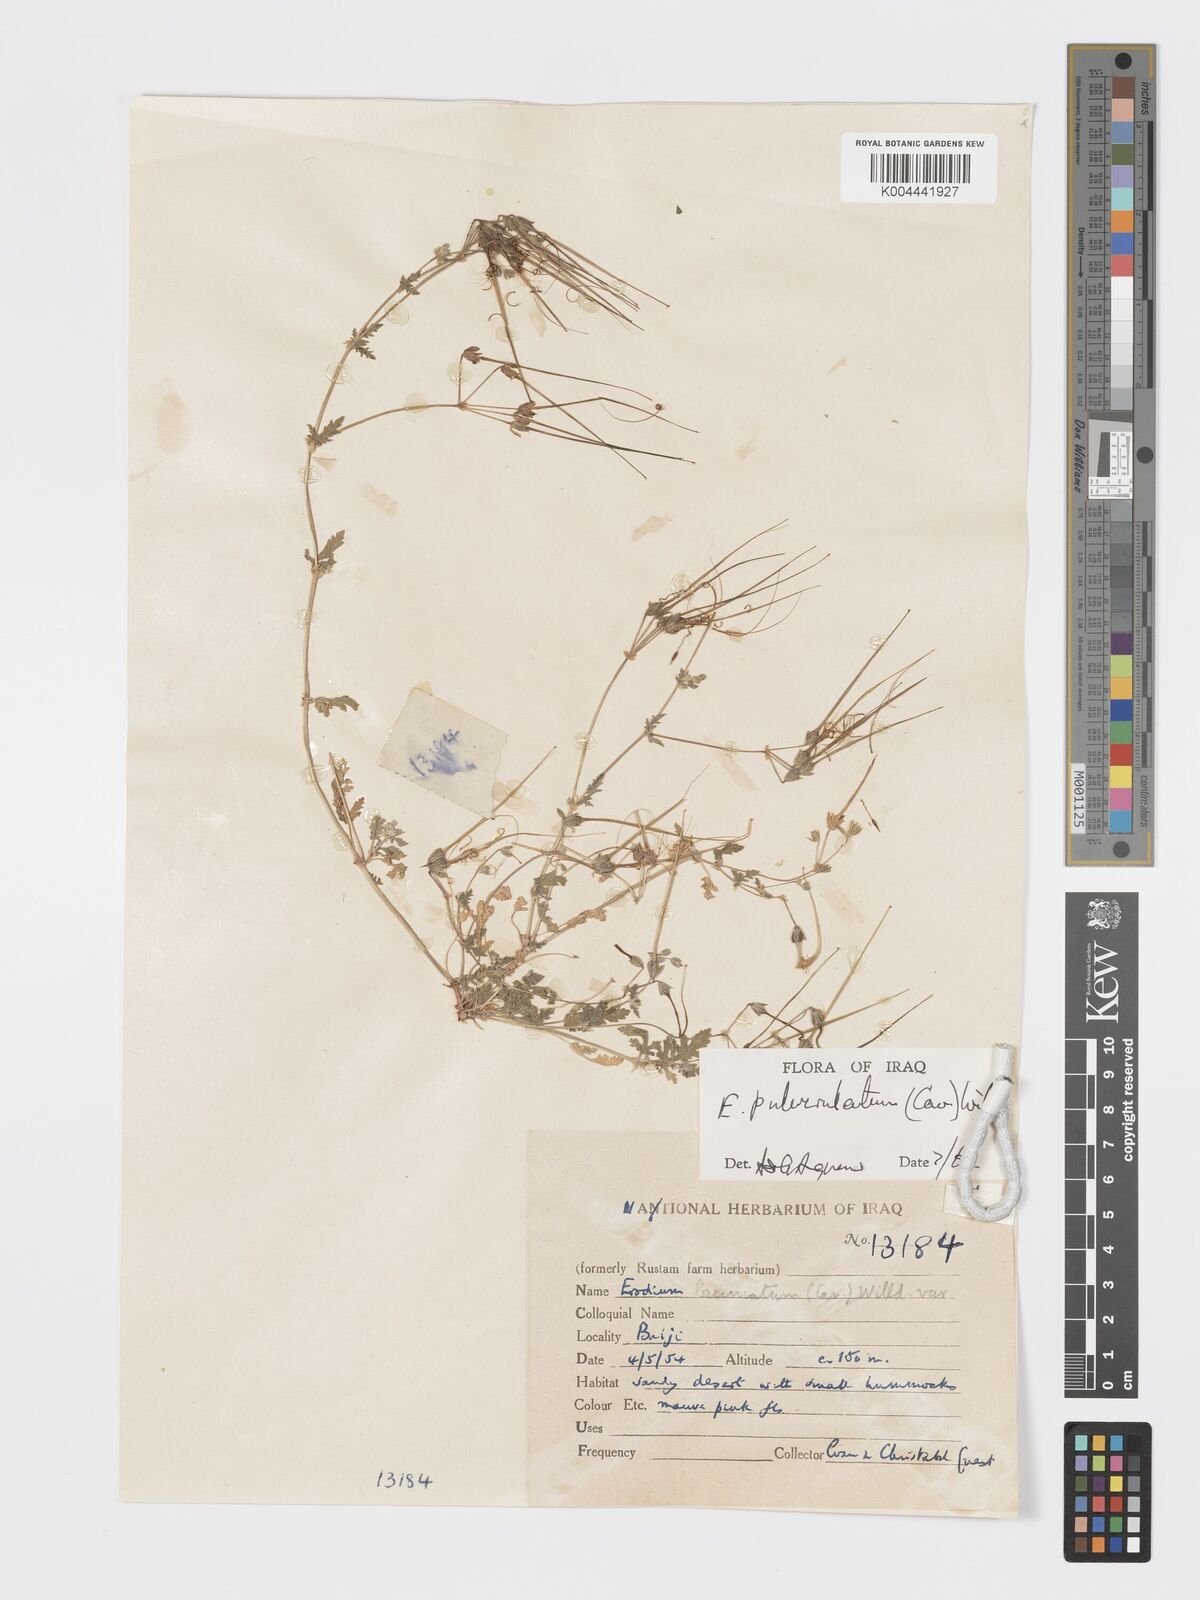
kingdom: Plantae
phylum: Tracheophyta
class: Magnoliopsida
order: Geraniales
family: Geraniaceae
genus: Erodium
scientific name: Erodium laciniatum
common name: Cutleaf stork's bill
